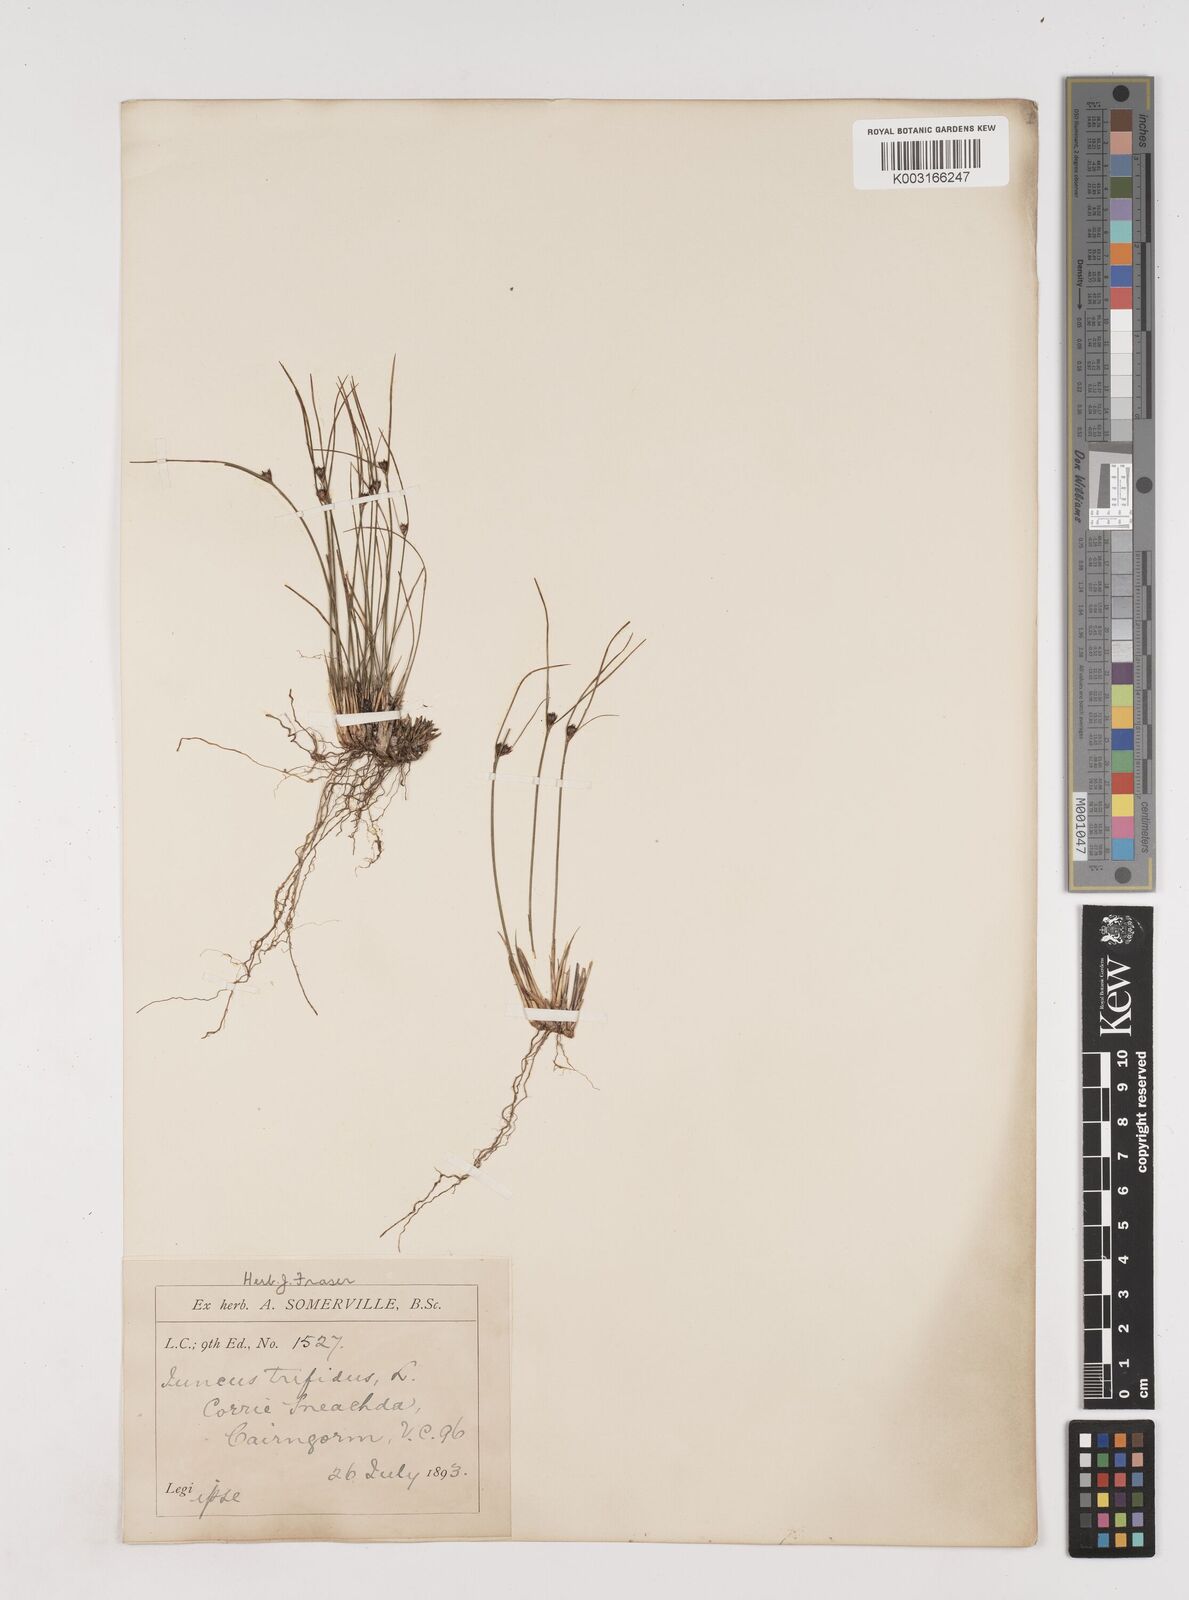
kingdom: Plantae
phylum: Tracheophyta
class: Liliopsida
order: Poales
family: Juncaceae
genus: Oreojuncus
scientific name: Oreojuncus trifidus
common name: Highland rush
